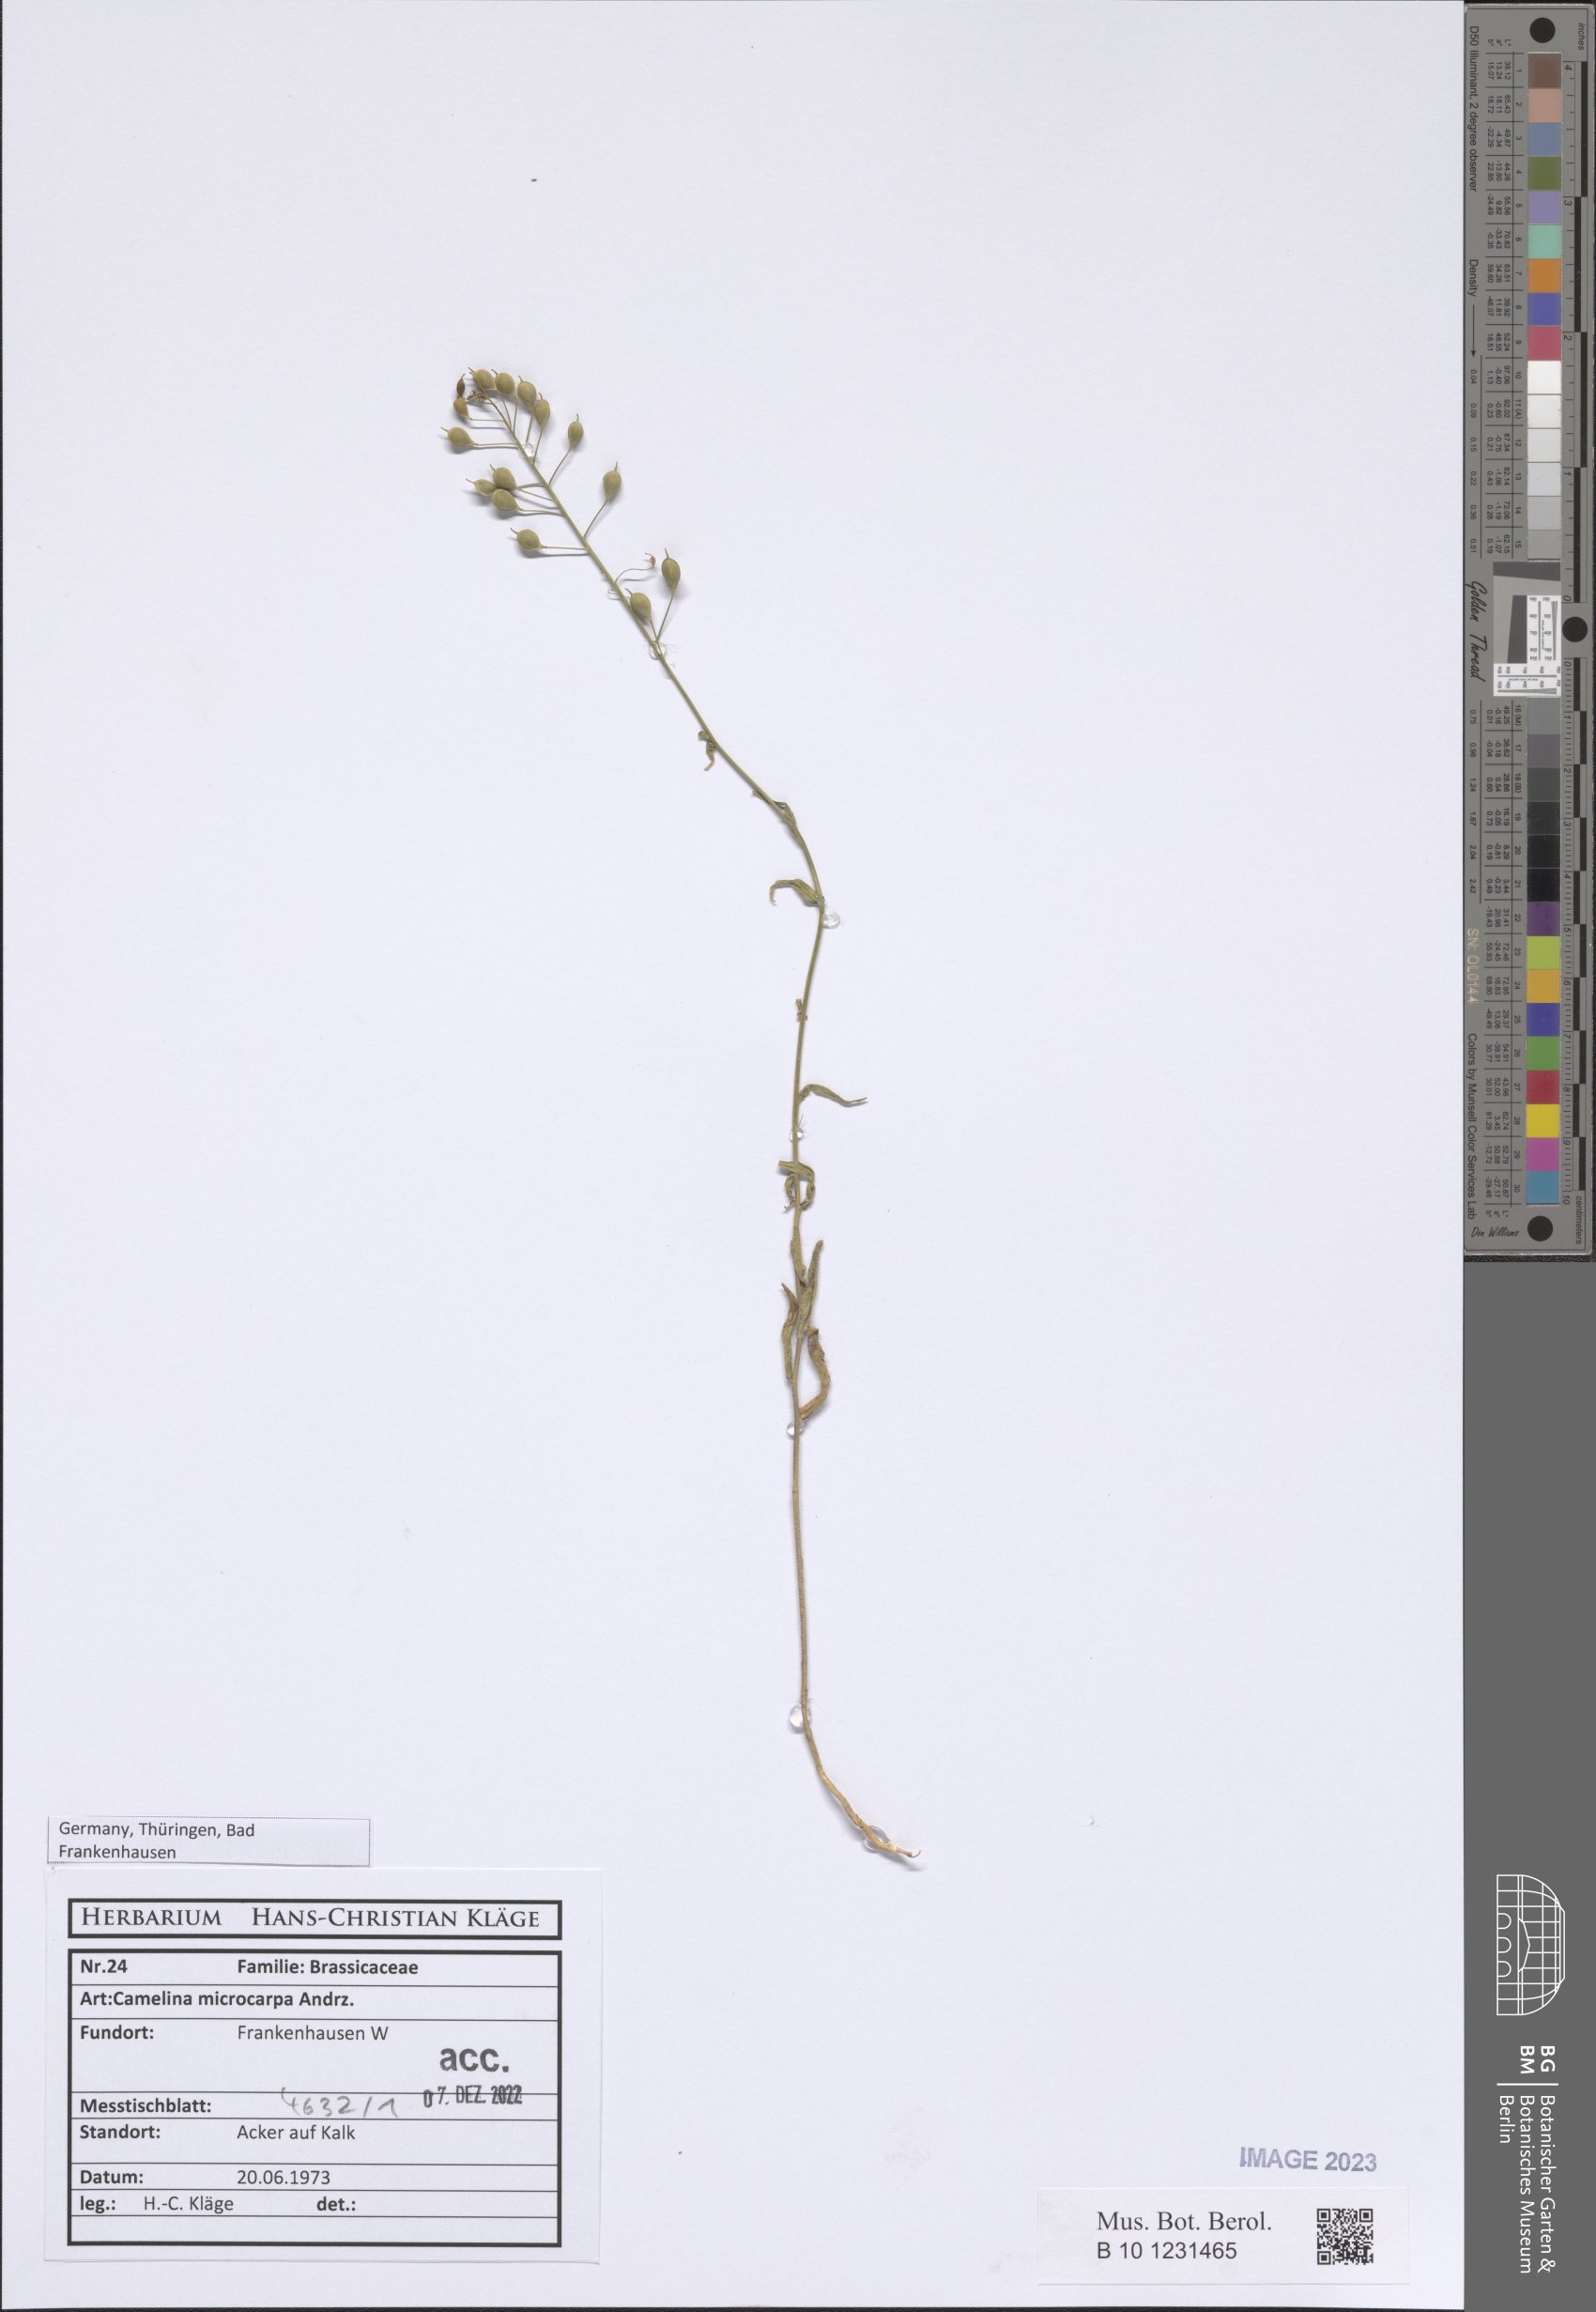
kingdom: Plantae
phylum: Tracheophyta
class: Magnoliopsida
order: Brassicales
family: Brassicaceae
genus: Camelina
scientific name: Camelina microcarpa
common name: Lesser gold-of-pleasure
